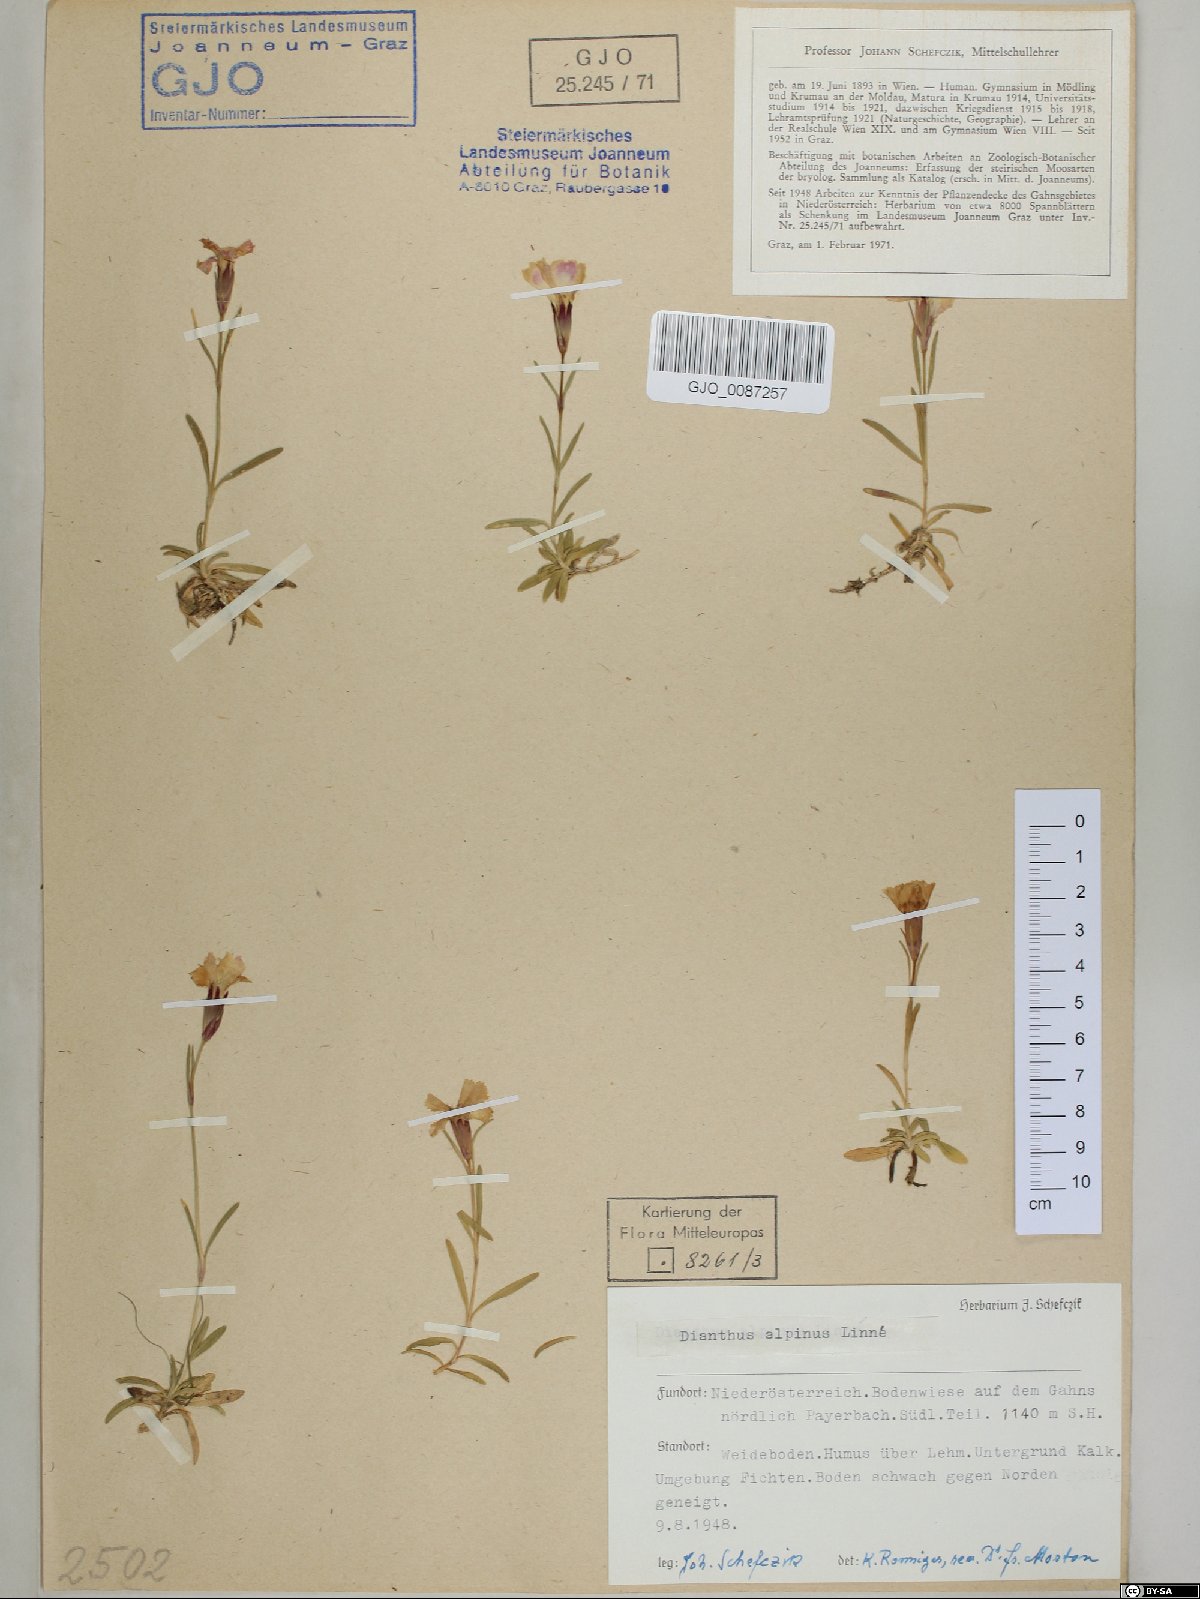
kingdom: Plantae
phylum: Tracheophyta
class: Magnoliopsida
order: Caryophyllales
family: Caryophyllaceae
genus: Dianthus
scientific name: Dianthus alpinus
